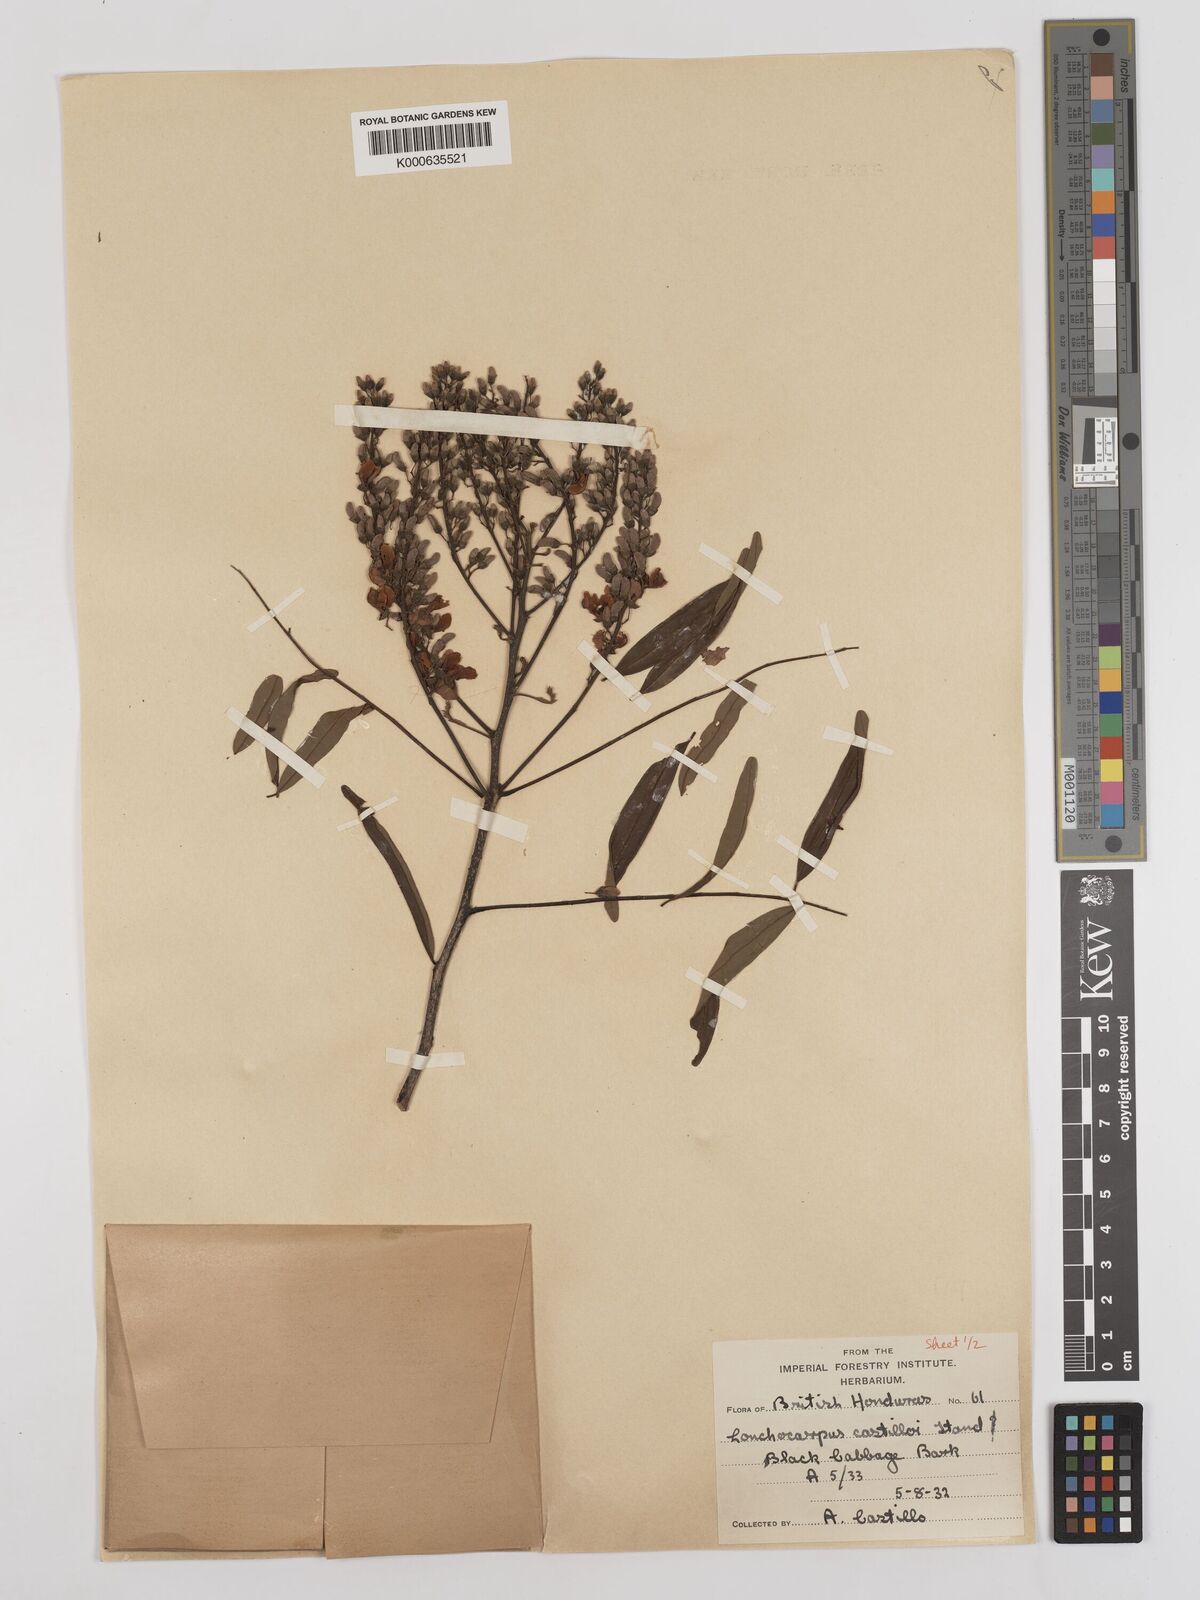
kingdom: Plantae
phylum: Tracheophyta
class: Magnoliopsida
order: Fabales
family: Fabaceae
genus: Lonchocarpus
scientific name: Lonchocarpus castilloi
